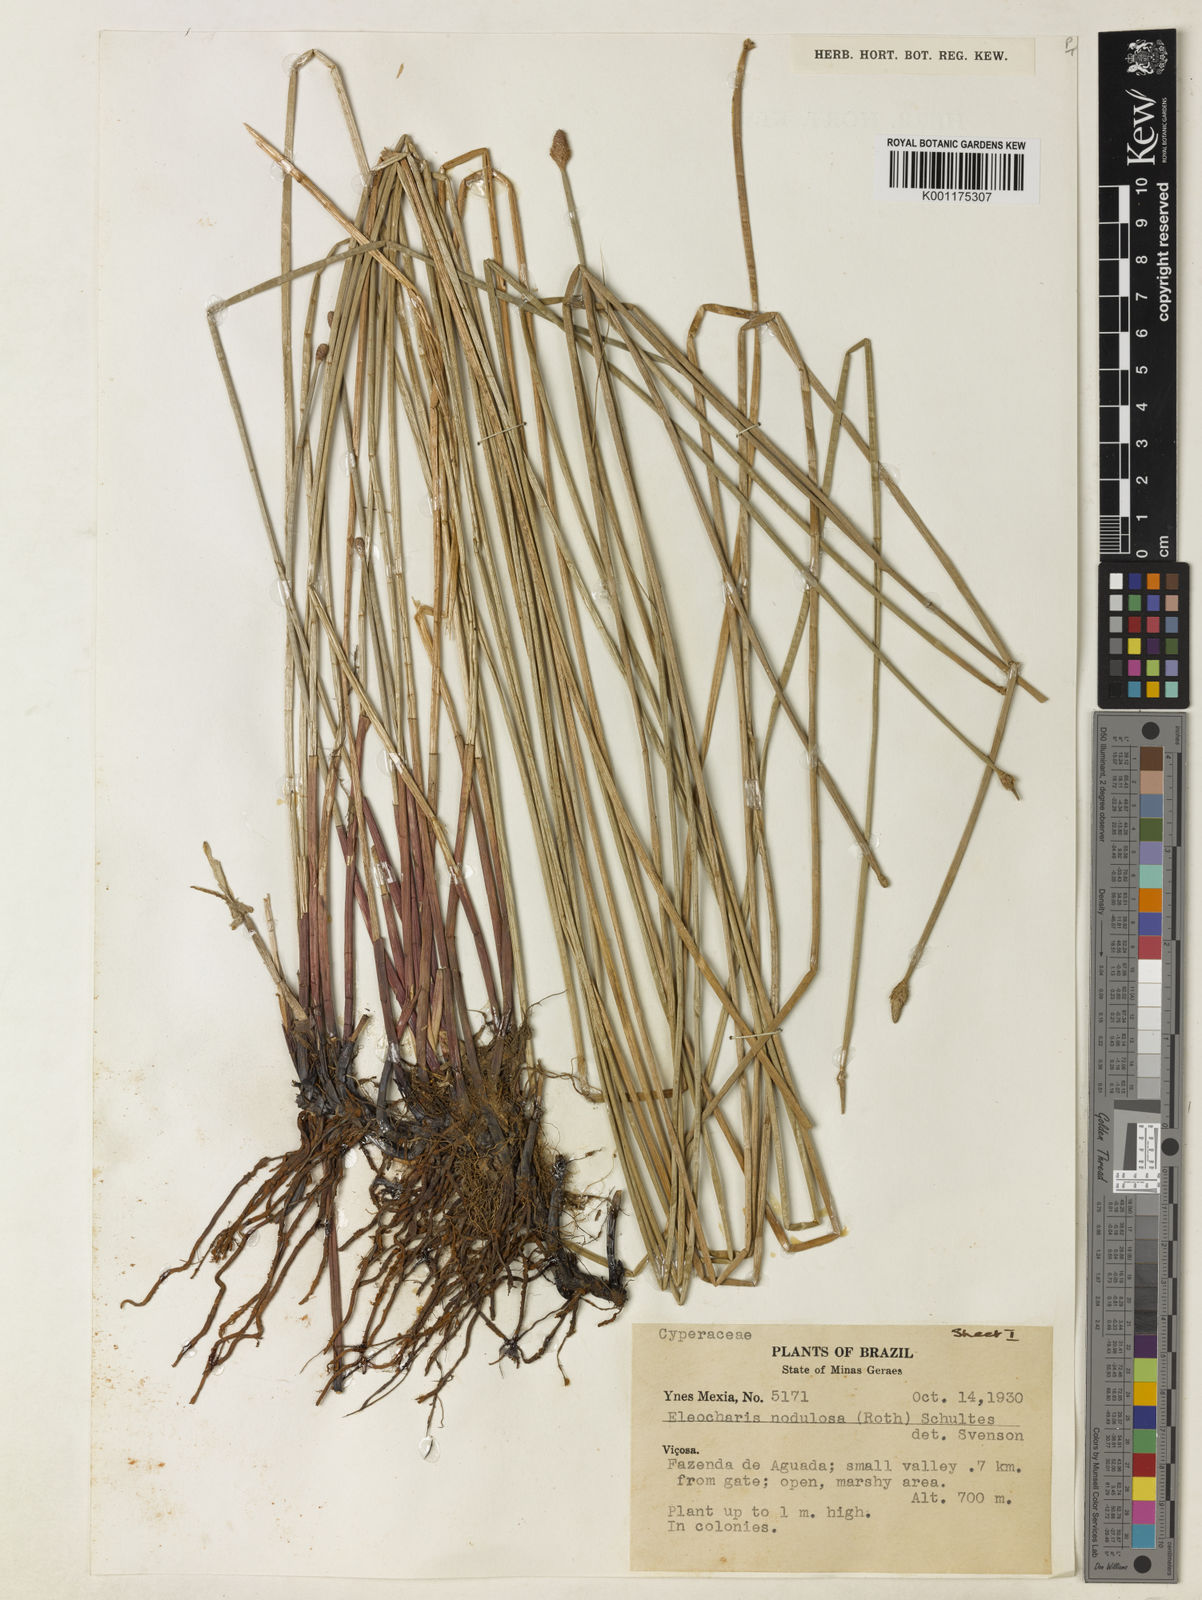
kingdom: Plantae
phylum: Tracheophyta
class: Liliopsida
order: Poales
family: Cyperaceae
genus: Eleocharis
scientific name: Eleocharis montana
